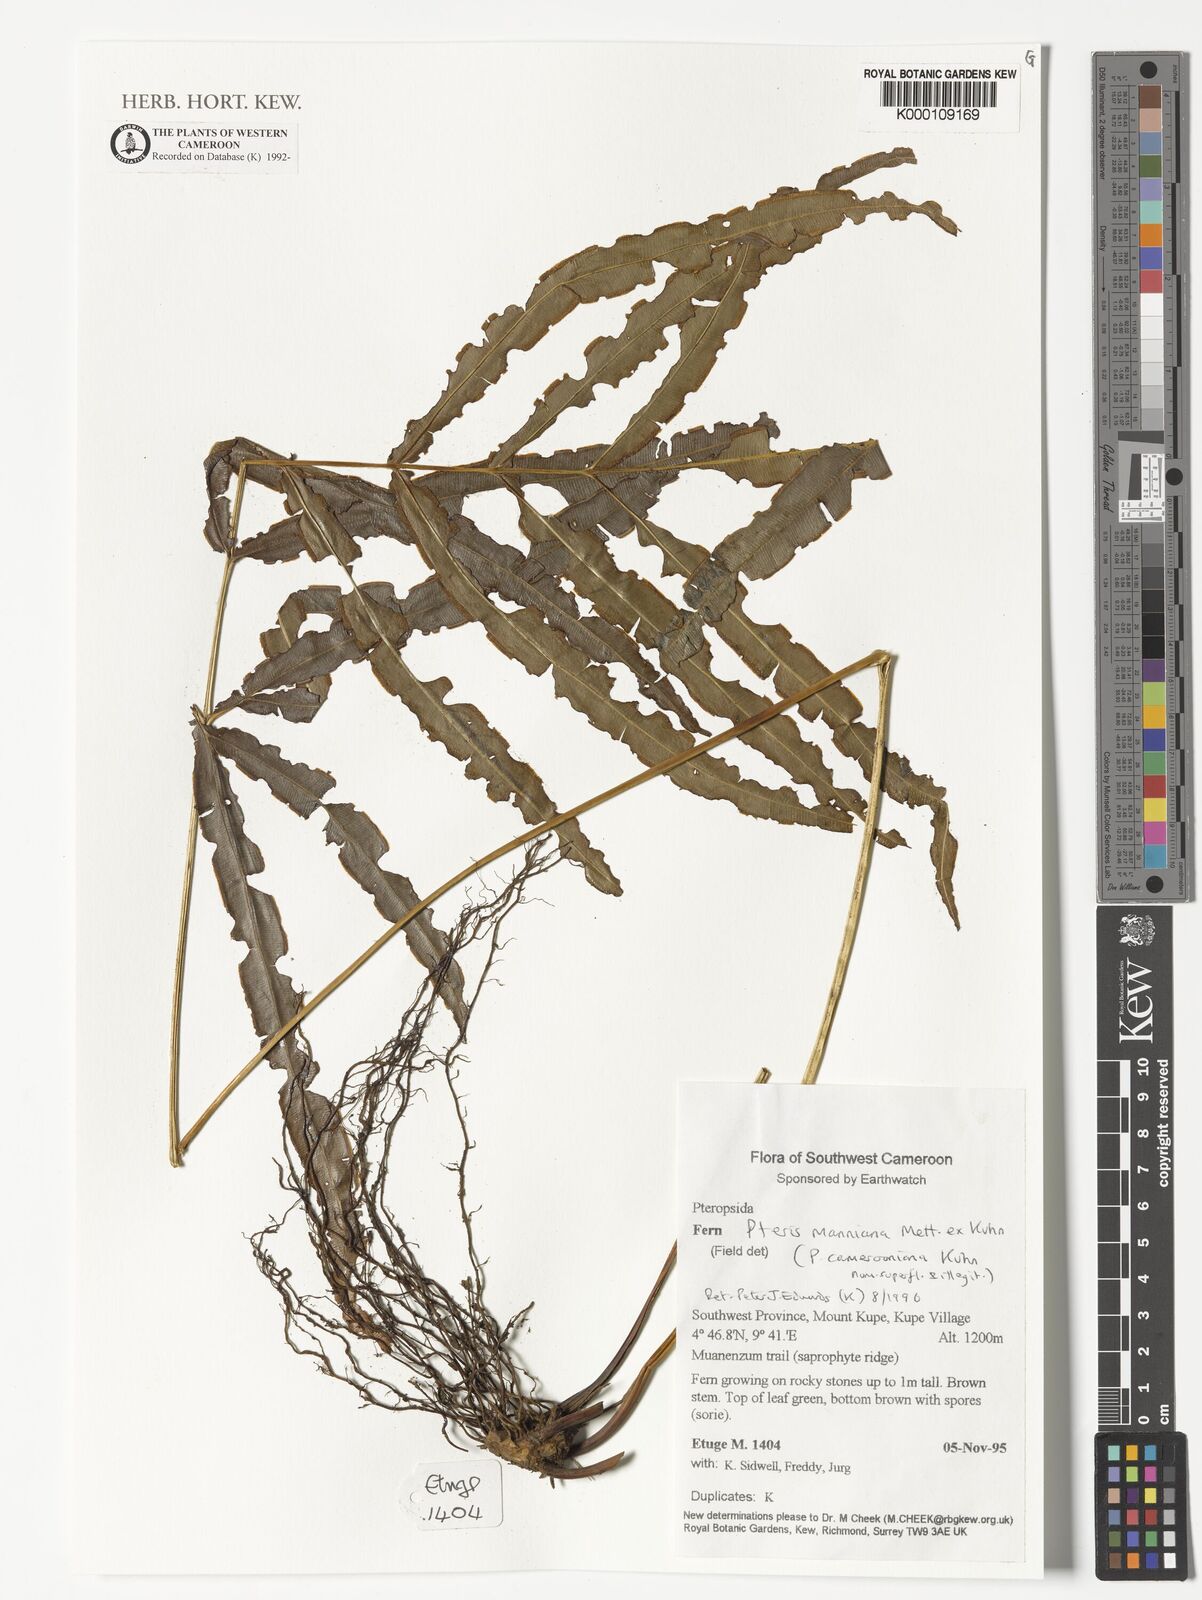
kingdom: Plantae
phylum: Tracheophyta
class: Polypodiopsida
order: Polypodiales
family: Pteridaceae
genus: Pteris
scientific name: Pteris camerooniana
